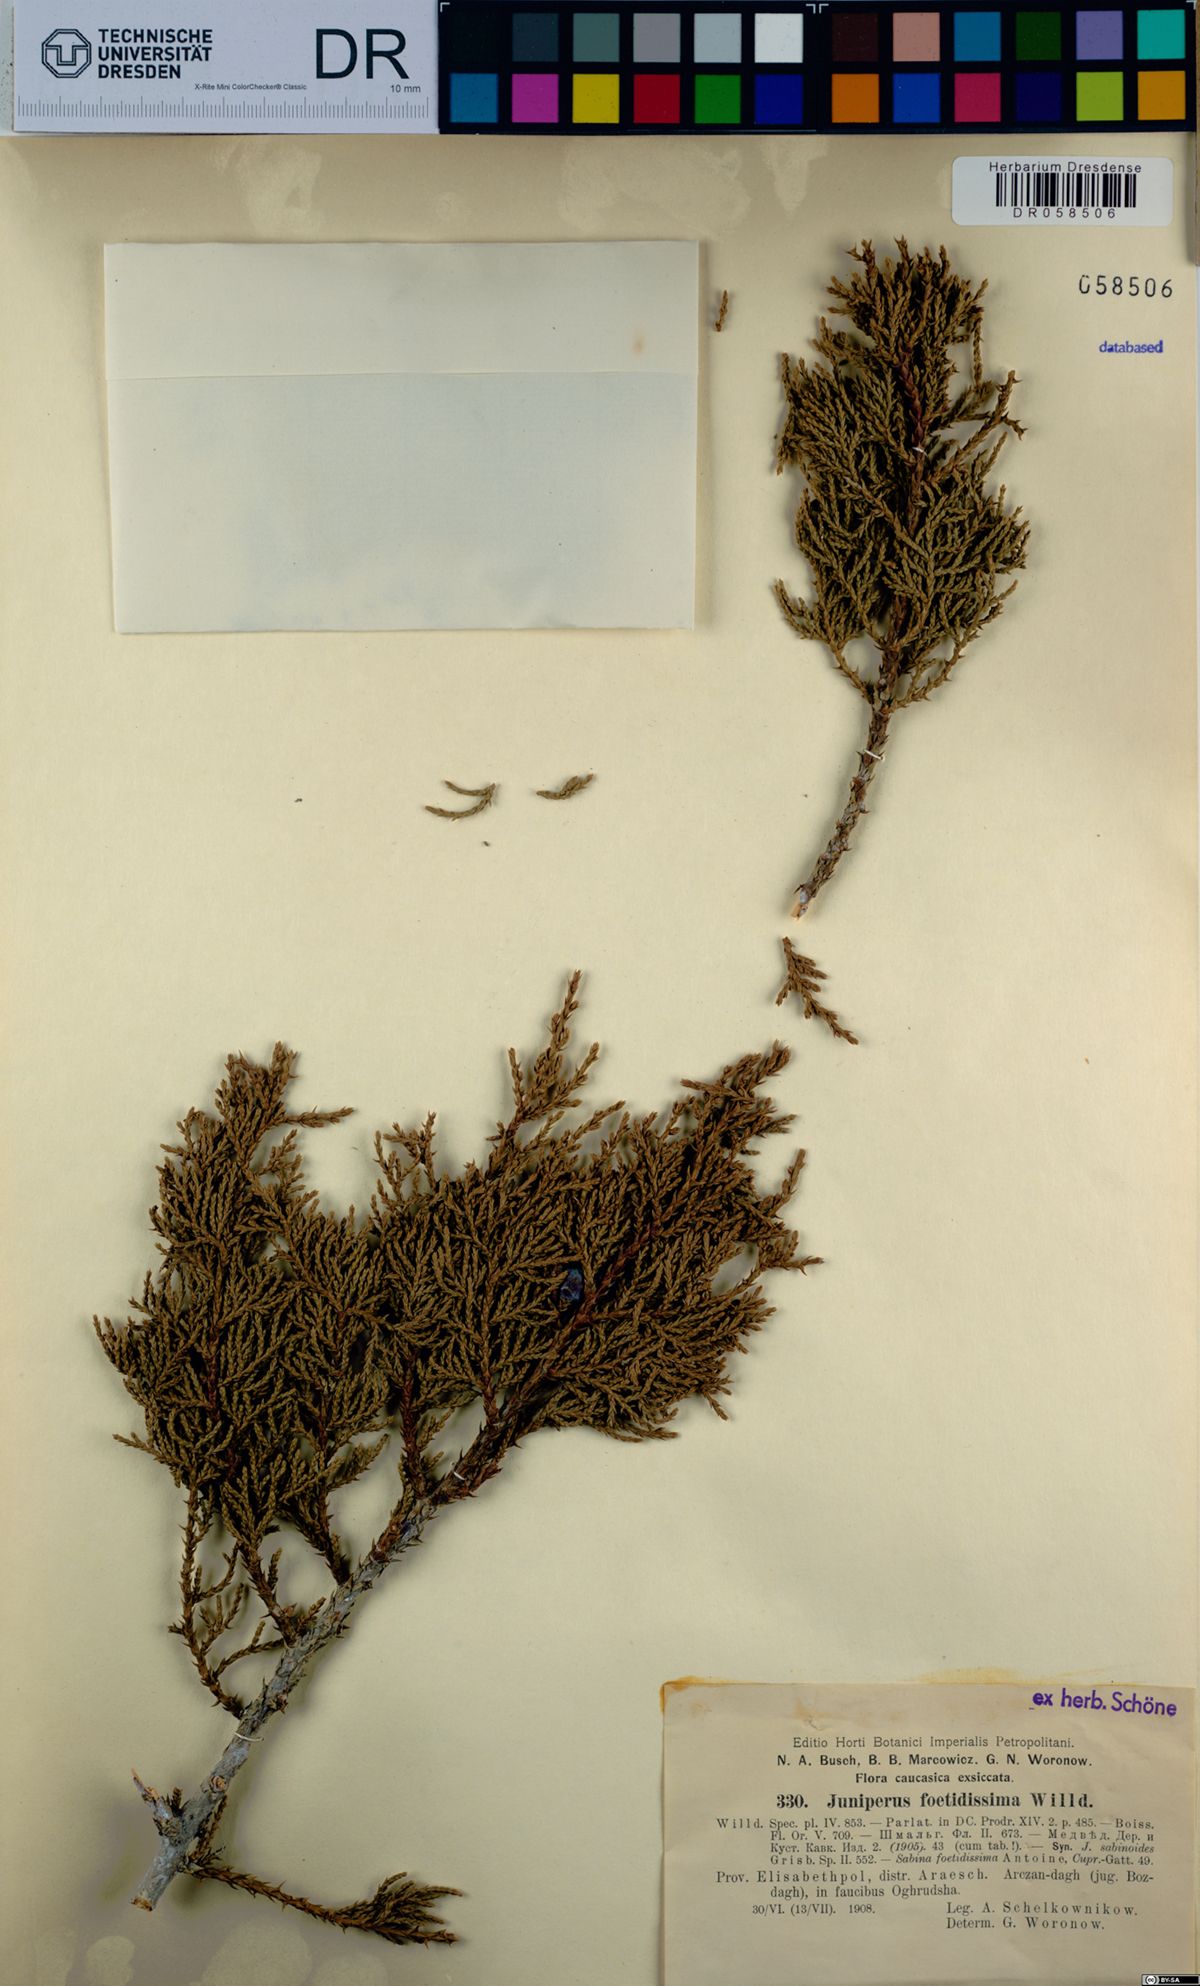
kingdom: Plantae
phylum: Tracheophyta
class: Pinopsida
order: Pinales
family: Cupressaceae
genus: Juniperus
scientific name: Juniperus foetidissima
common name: Stinking juniper
